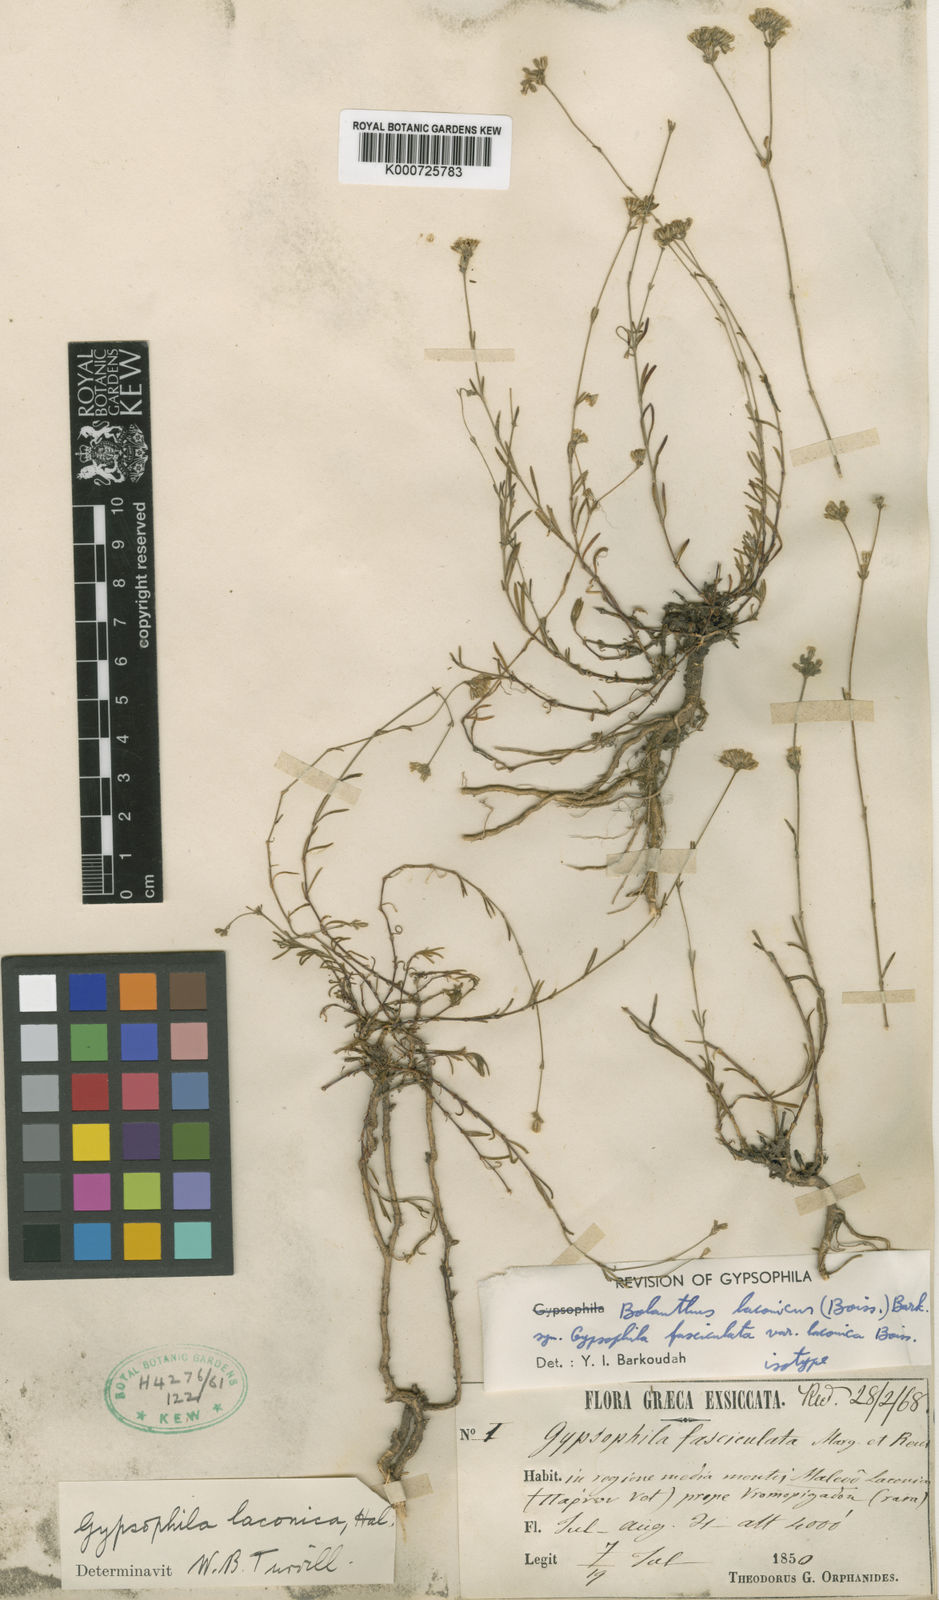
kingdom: Plantae
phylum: Tracheophyta
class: Magnoliopsida
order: Caryophyllales
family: Caryophyllaceae
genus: Graecobolanthus
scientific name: Graecobolanthus laconicus
